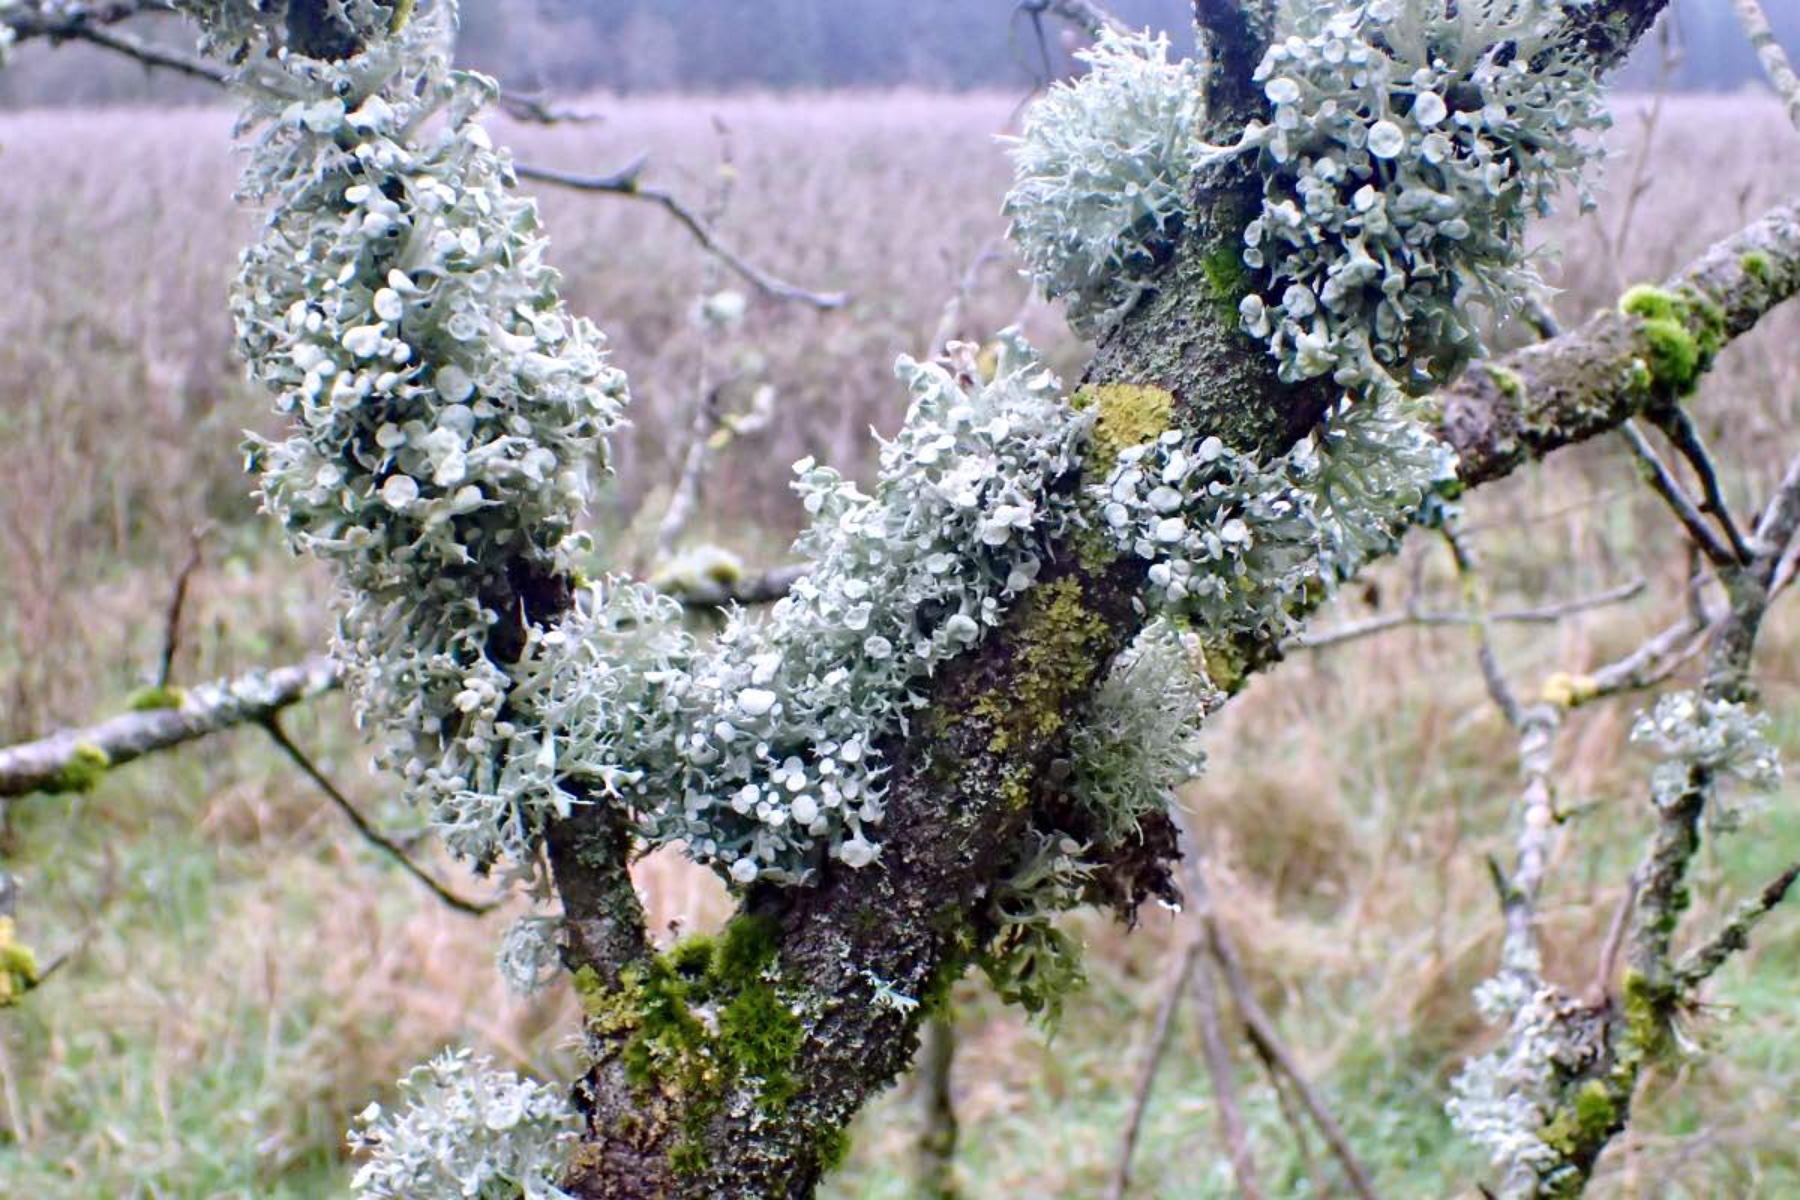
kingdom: Fungi
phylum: Ascomycota
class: Lecanoromycetes
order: Lecanorales
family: Ramalinaceae
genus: Ramalina
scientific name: Ramalina fastigiata
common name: tue-grenlav
